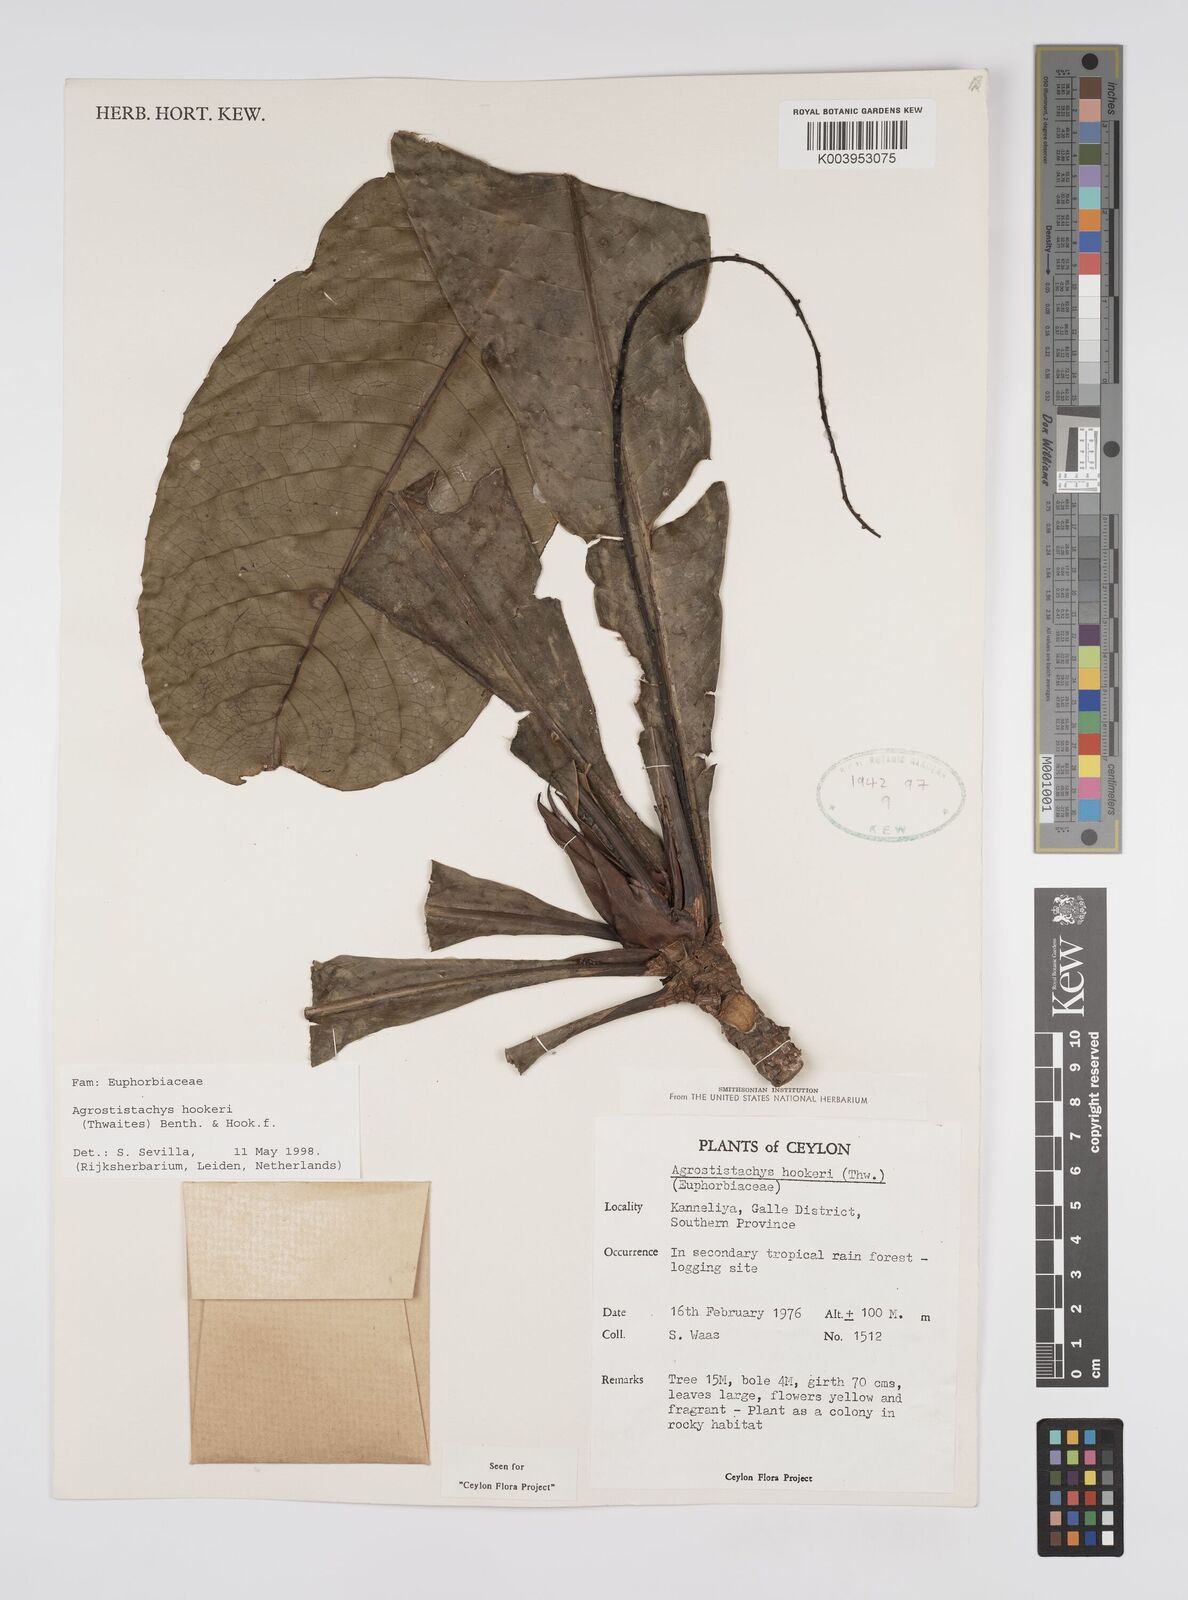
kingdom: Plantae
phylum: Tracheophyta
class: Magnoliopsida
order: Malpighiales
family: Euphorbiaceae
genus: Agrostistachys
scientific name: Agrostistachys hookeri
